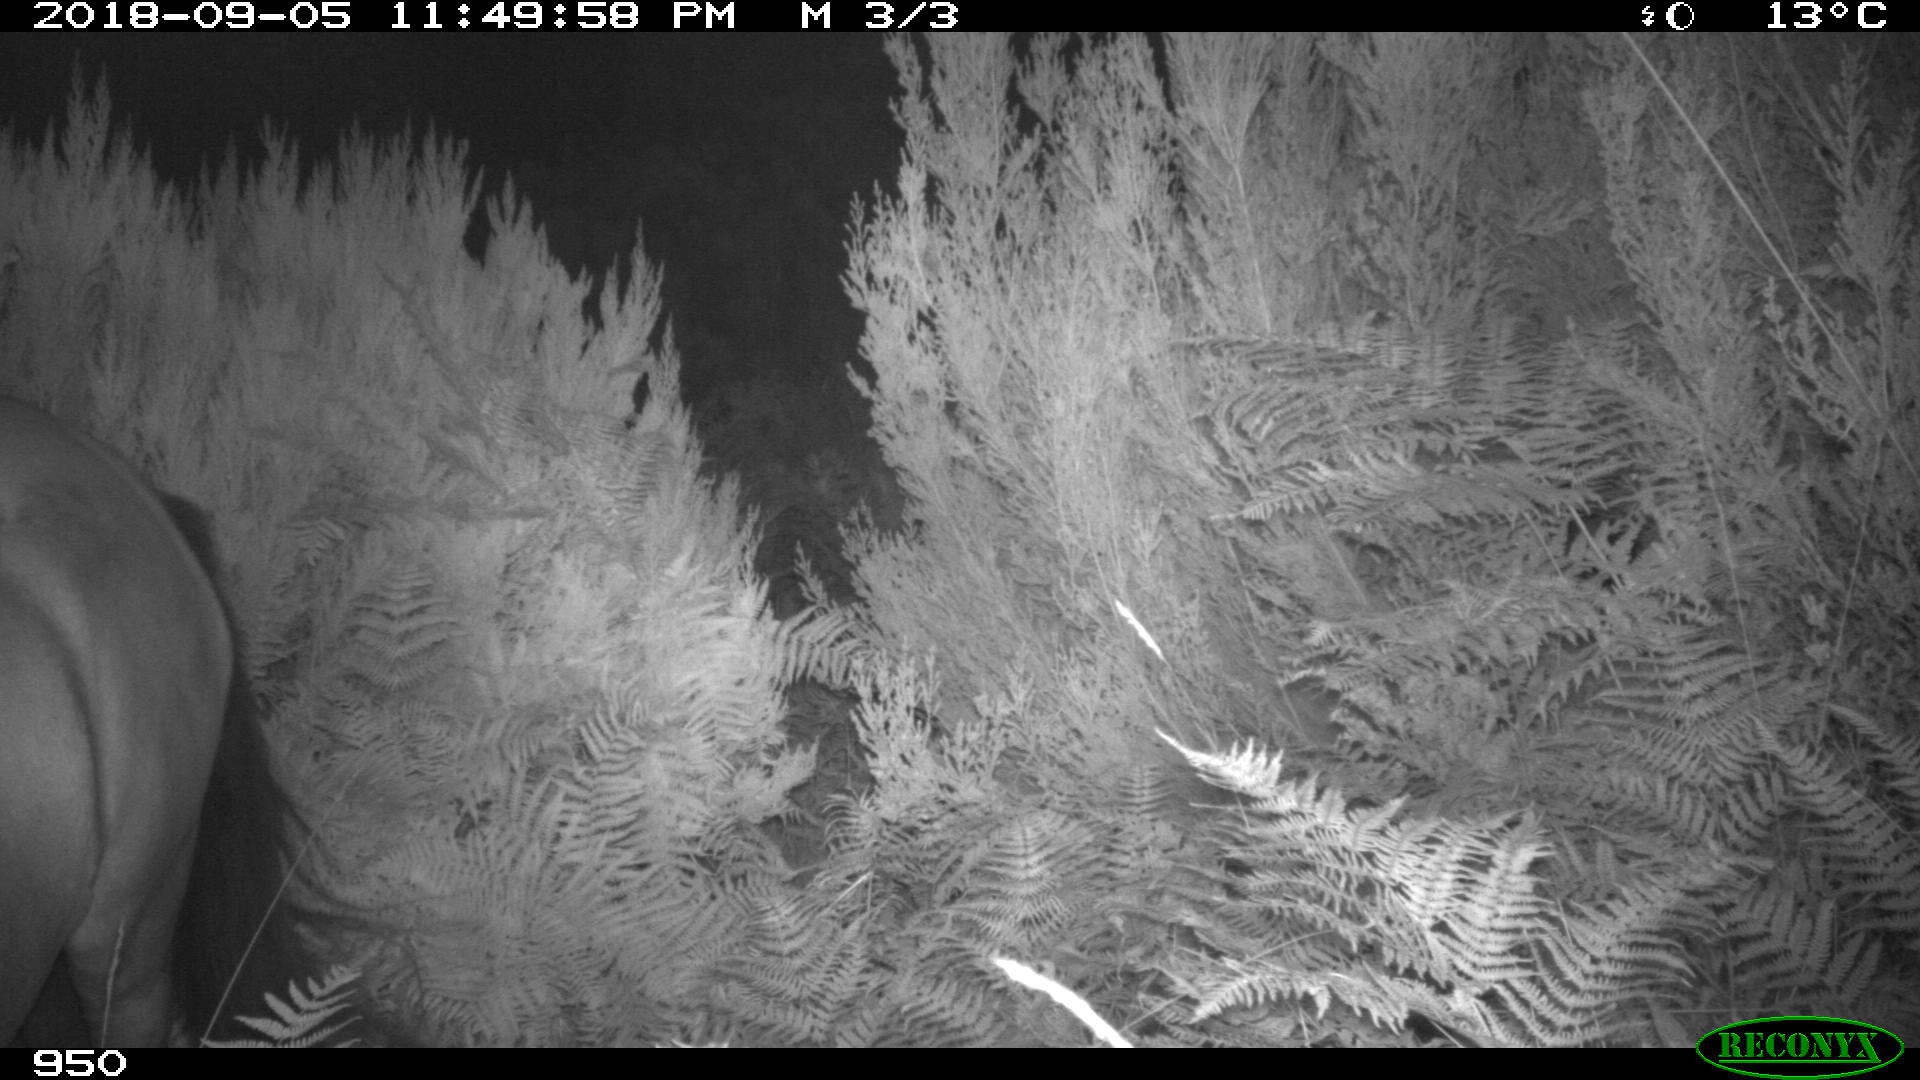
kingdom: Animalia
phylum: Chordata
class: Mammalia
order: Perissodactyla
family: Equidae
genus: Equus
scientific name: Equus caballus
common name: Horse
